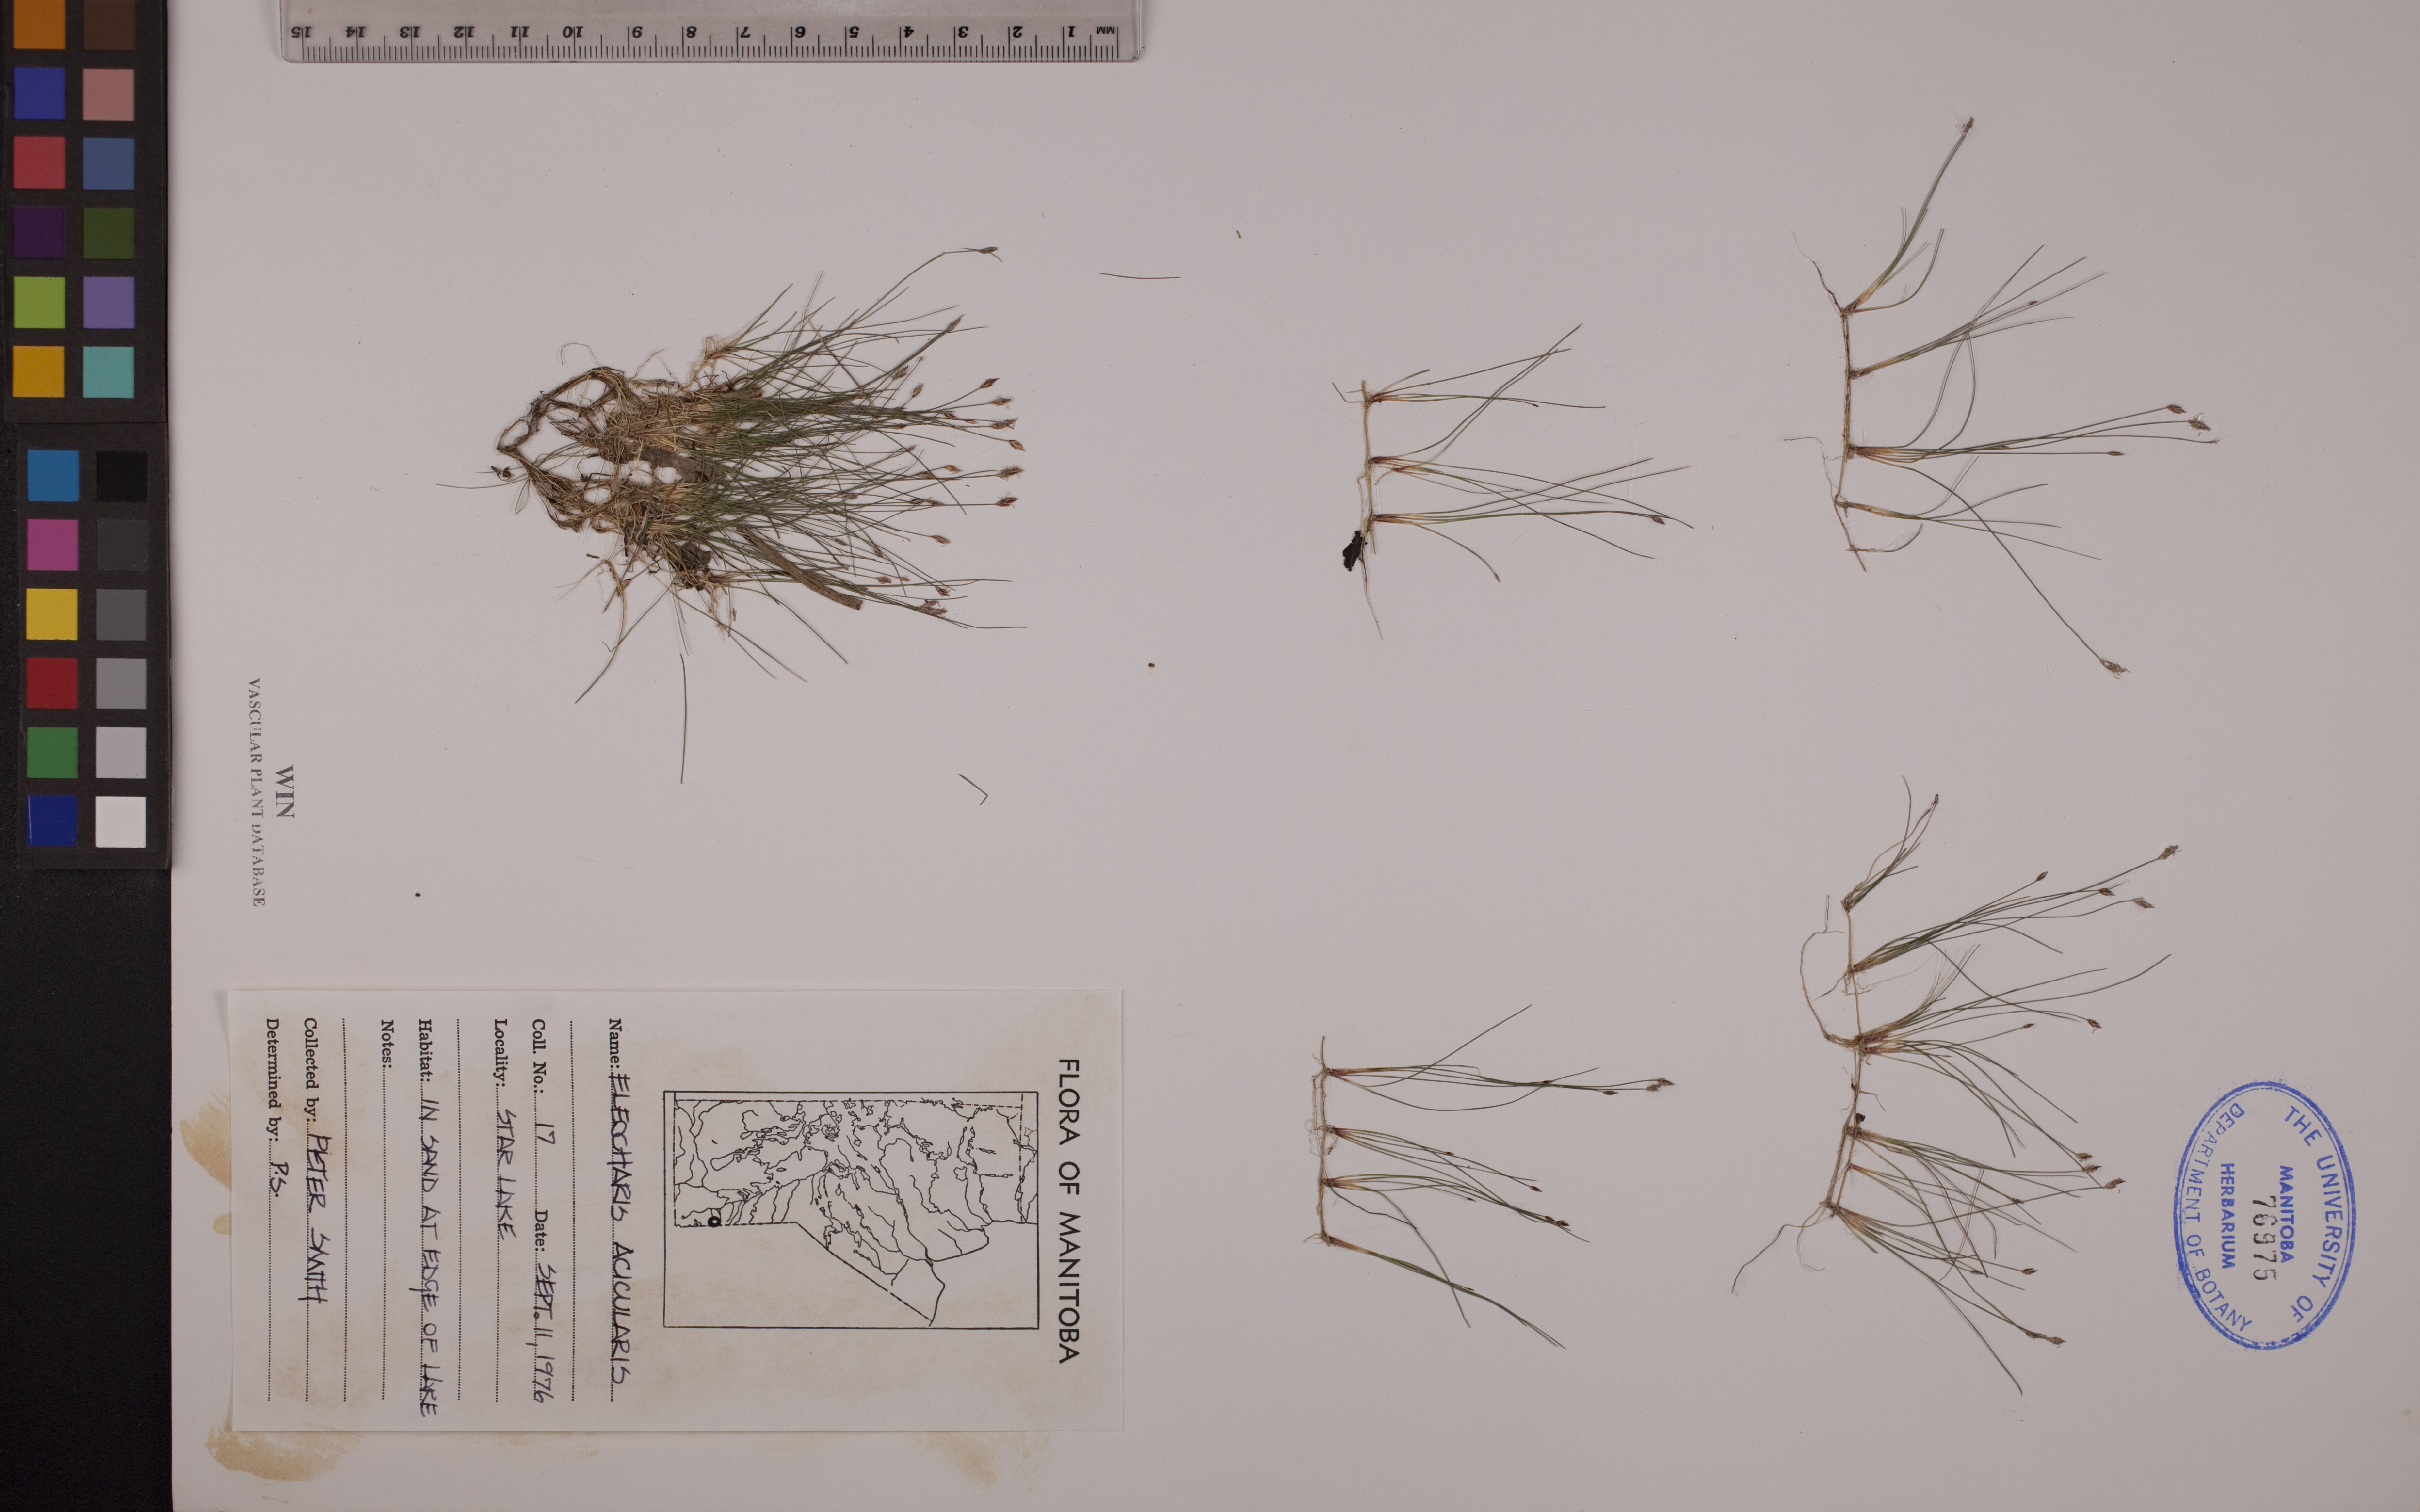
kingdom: Plantae
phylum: Tracheophyta
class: Liliopsida
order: Poales
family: Cyperaceae
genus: Eleocharis
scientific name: Eleocharis acicularis
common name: Needle spike-rush
